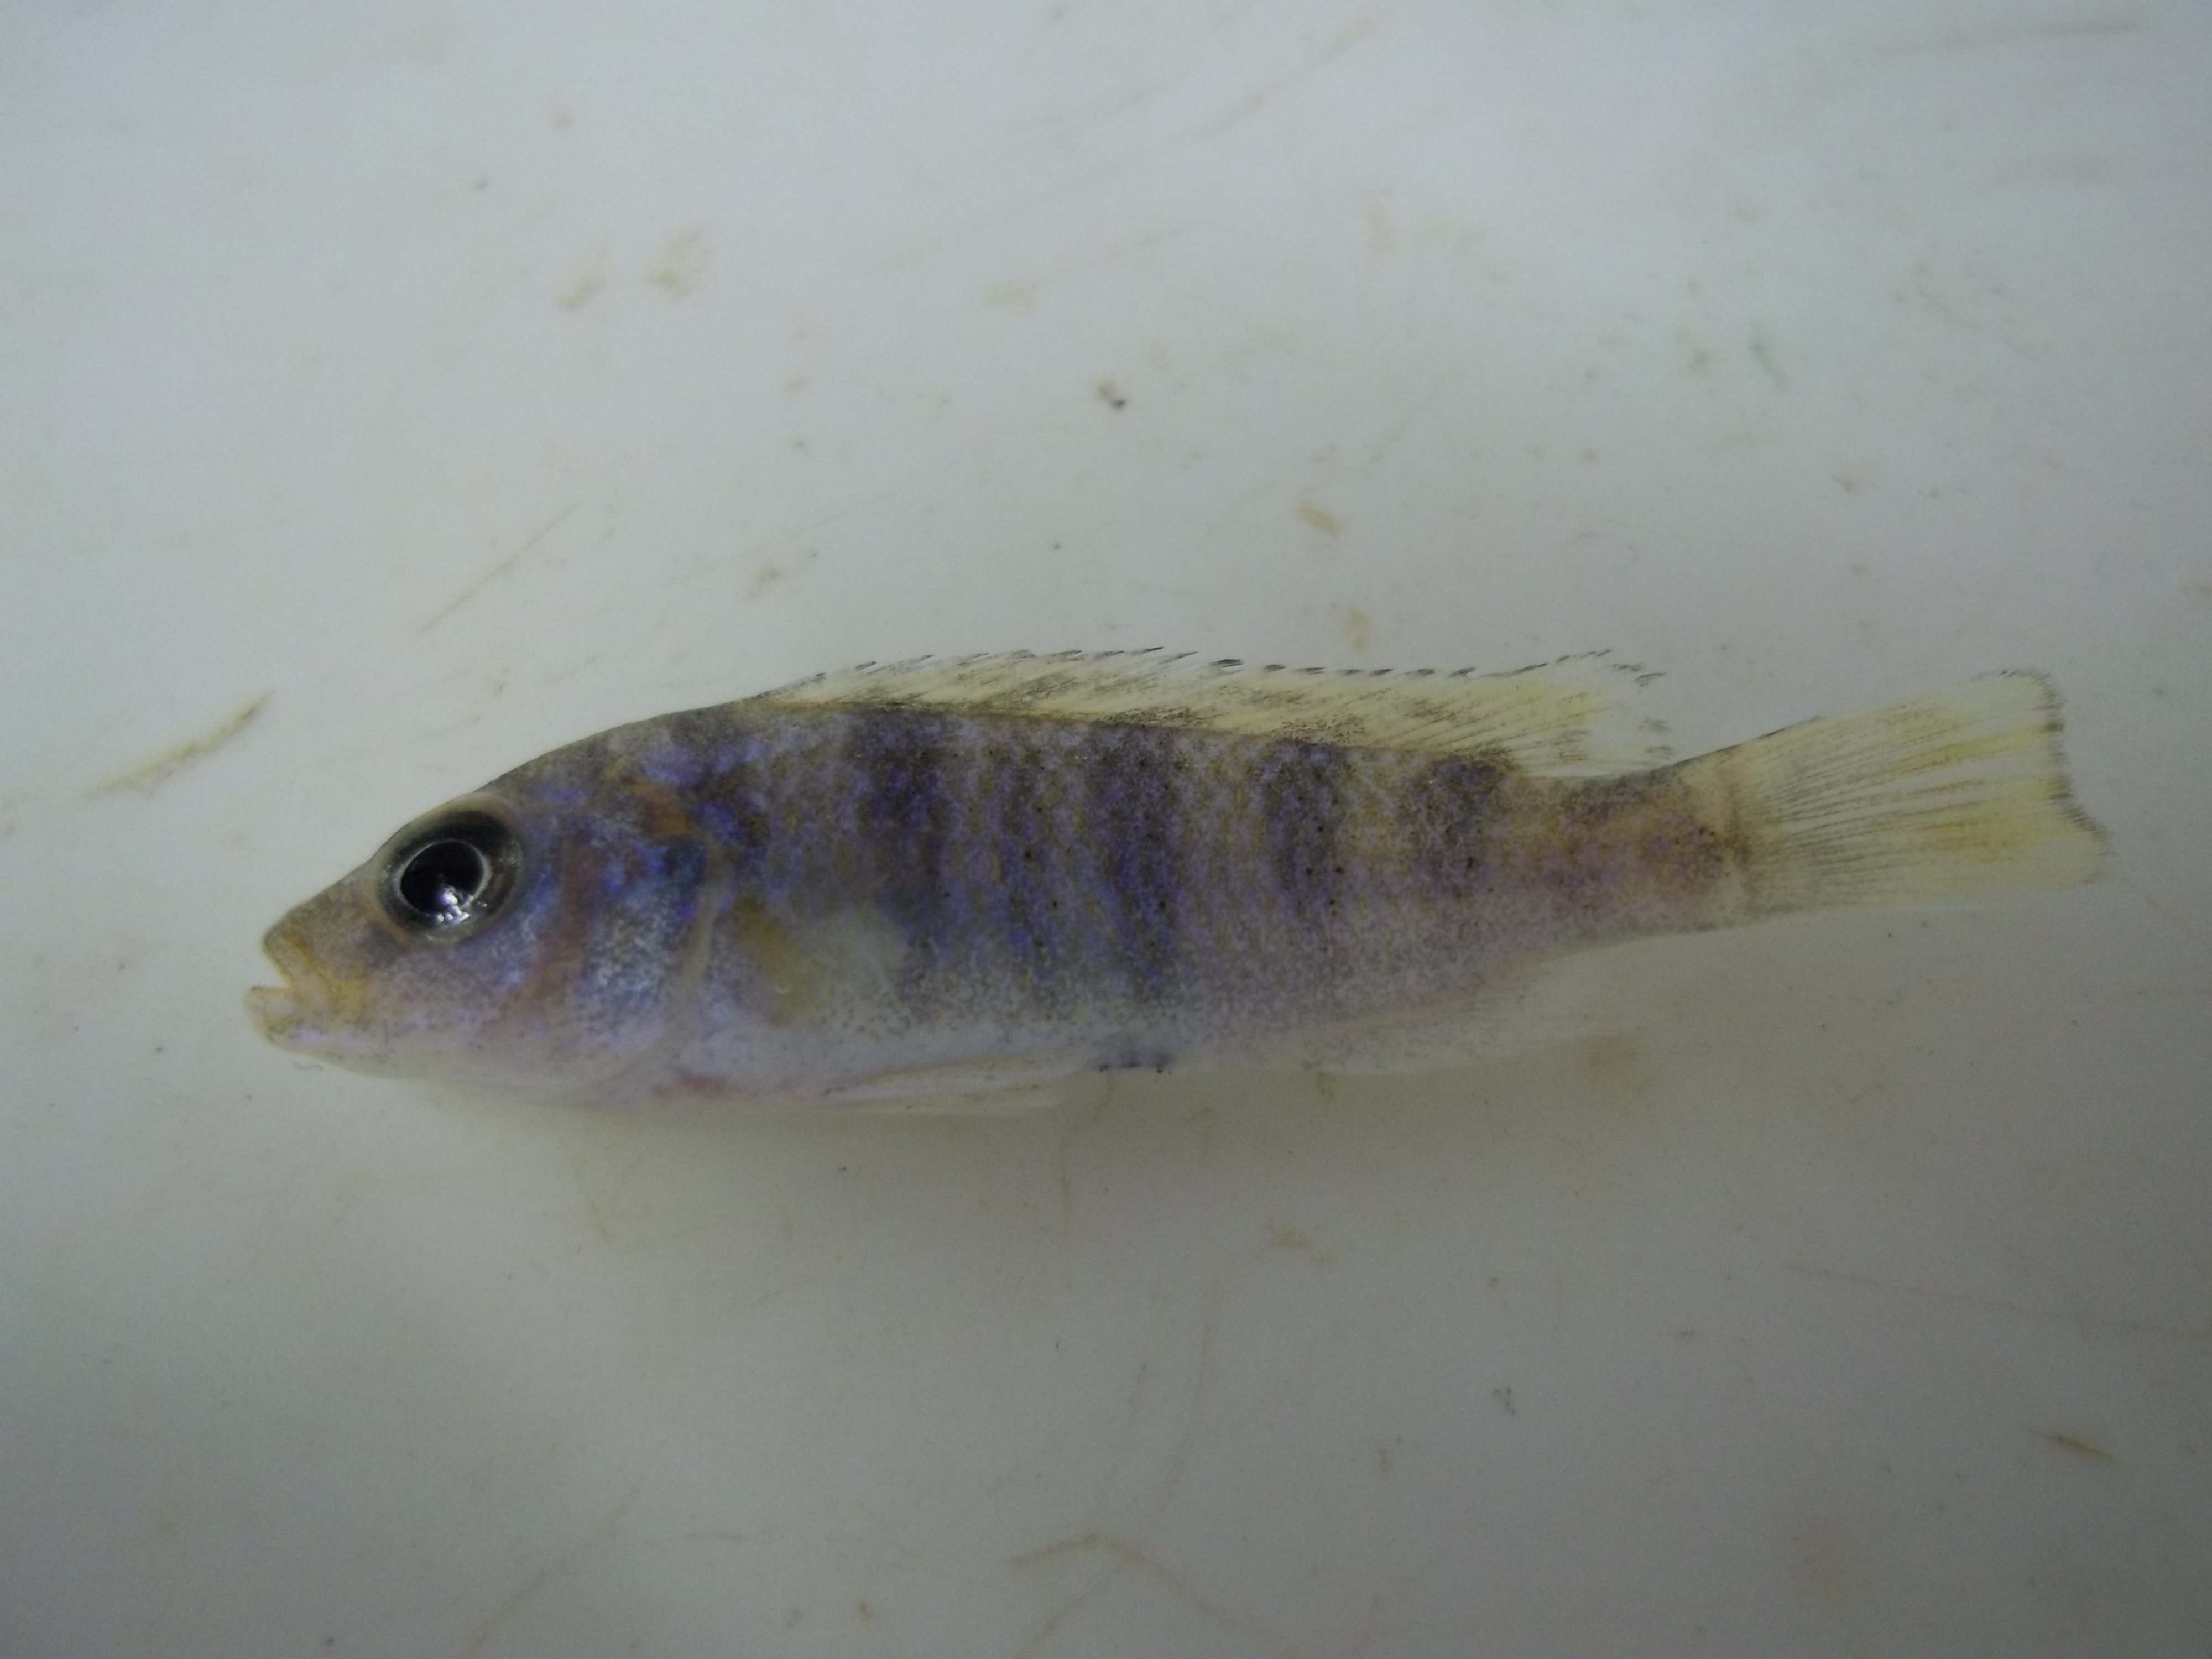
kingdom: Animalia
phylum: Chordata
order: Perciformes
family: Cichlidae
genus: Placidochromis
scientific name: Placidochromis milomo
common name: Super vc-10 hap
